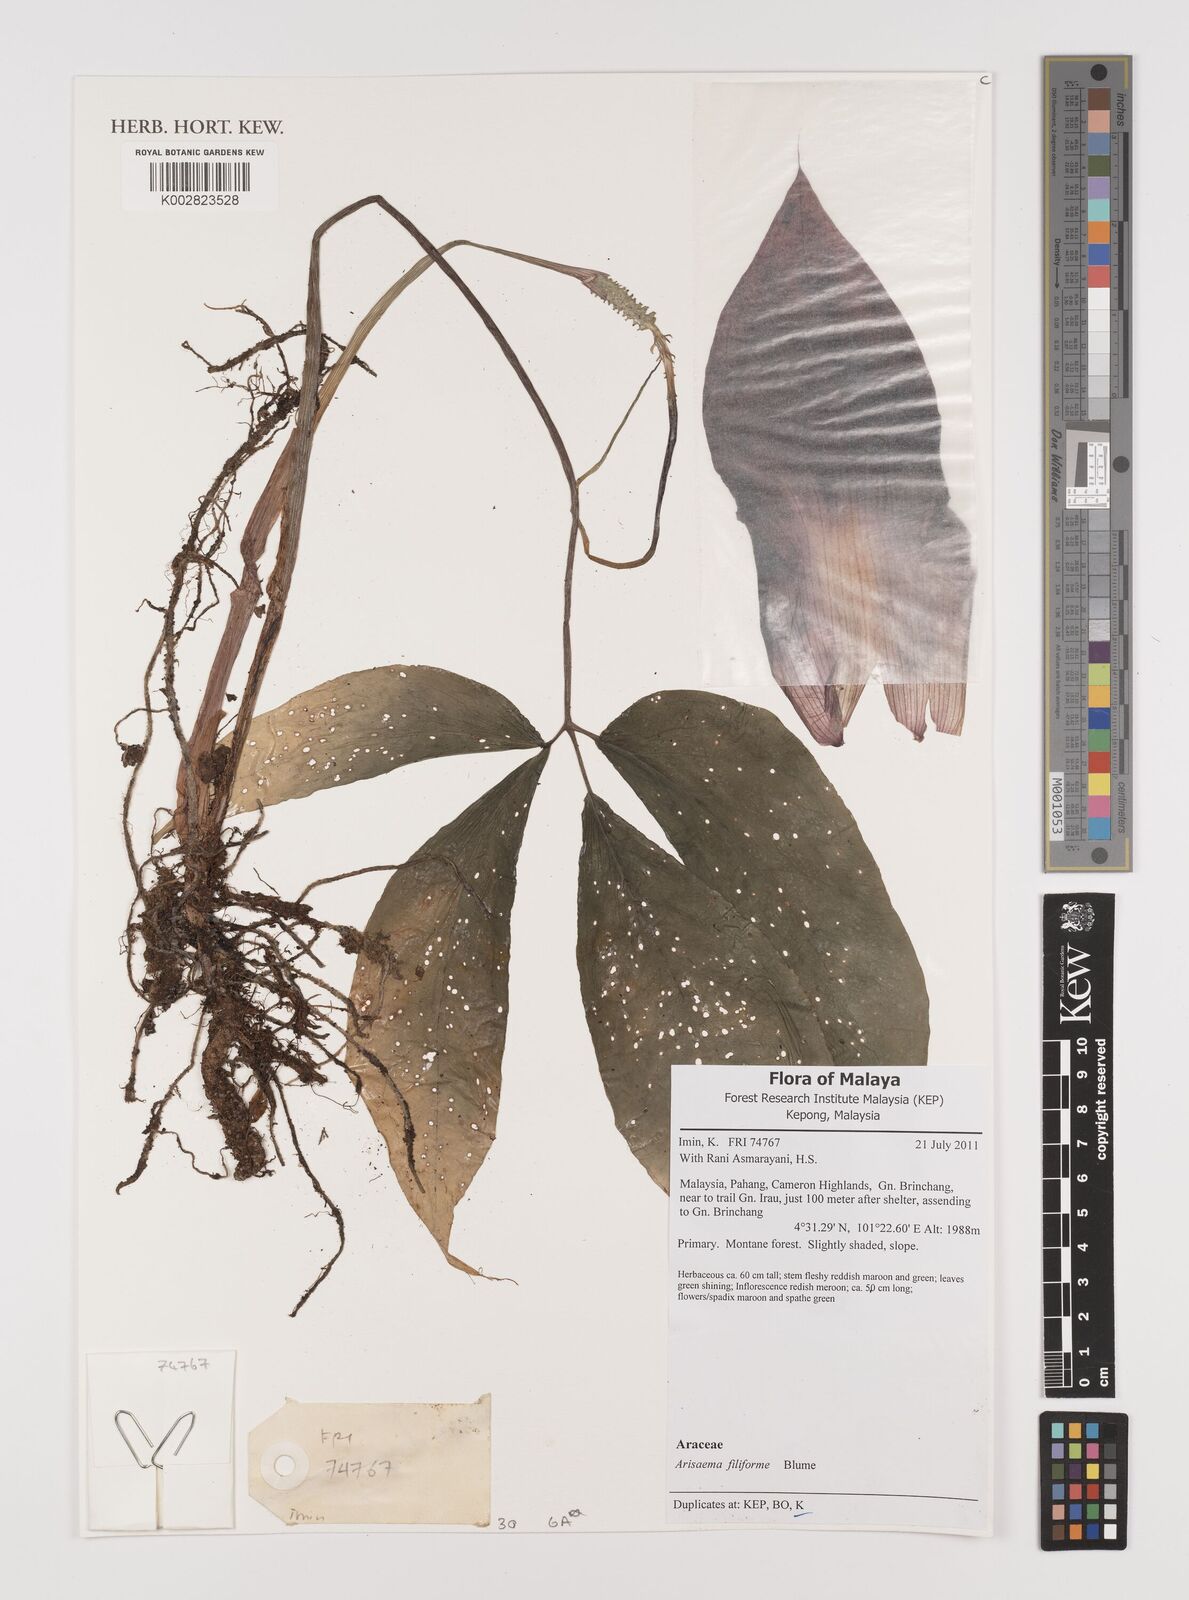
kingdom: Plantae
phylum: Tracheophyta
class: Liliopsida
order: Alismatales
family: Araceae
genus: Arisaema
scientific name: Arisaema filiforme
